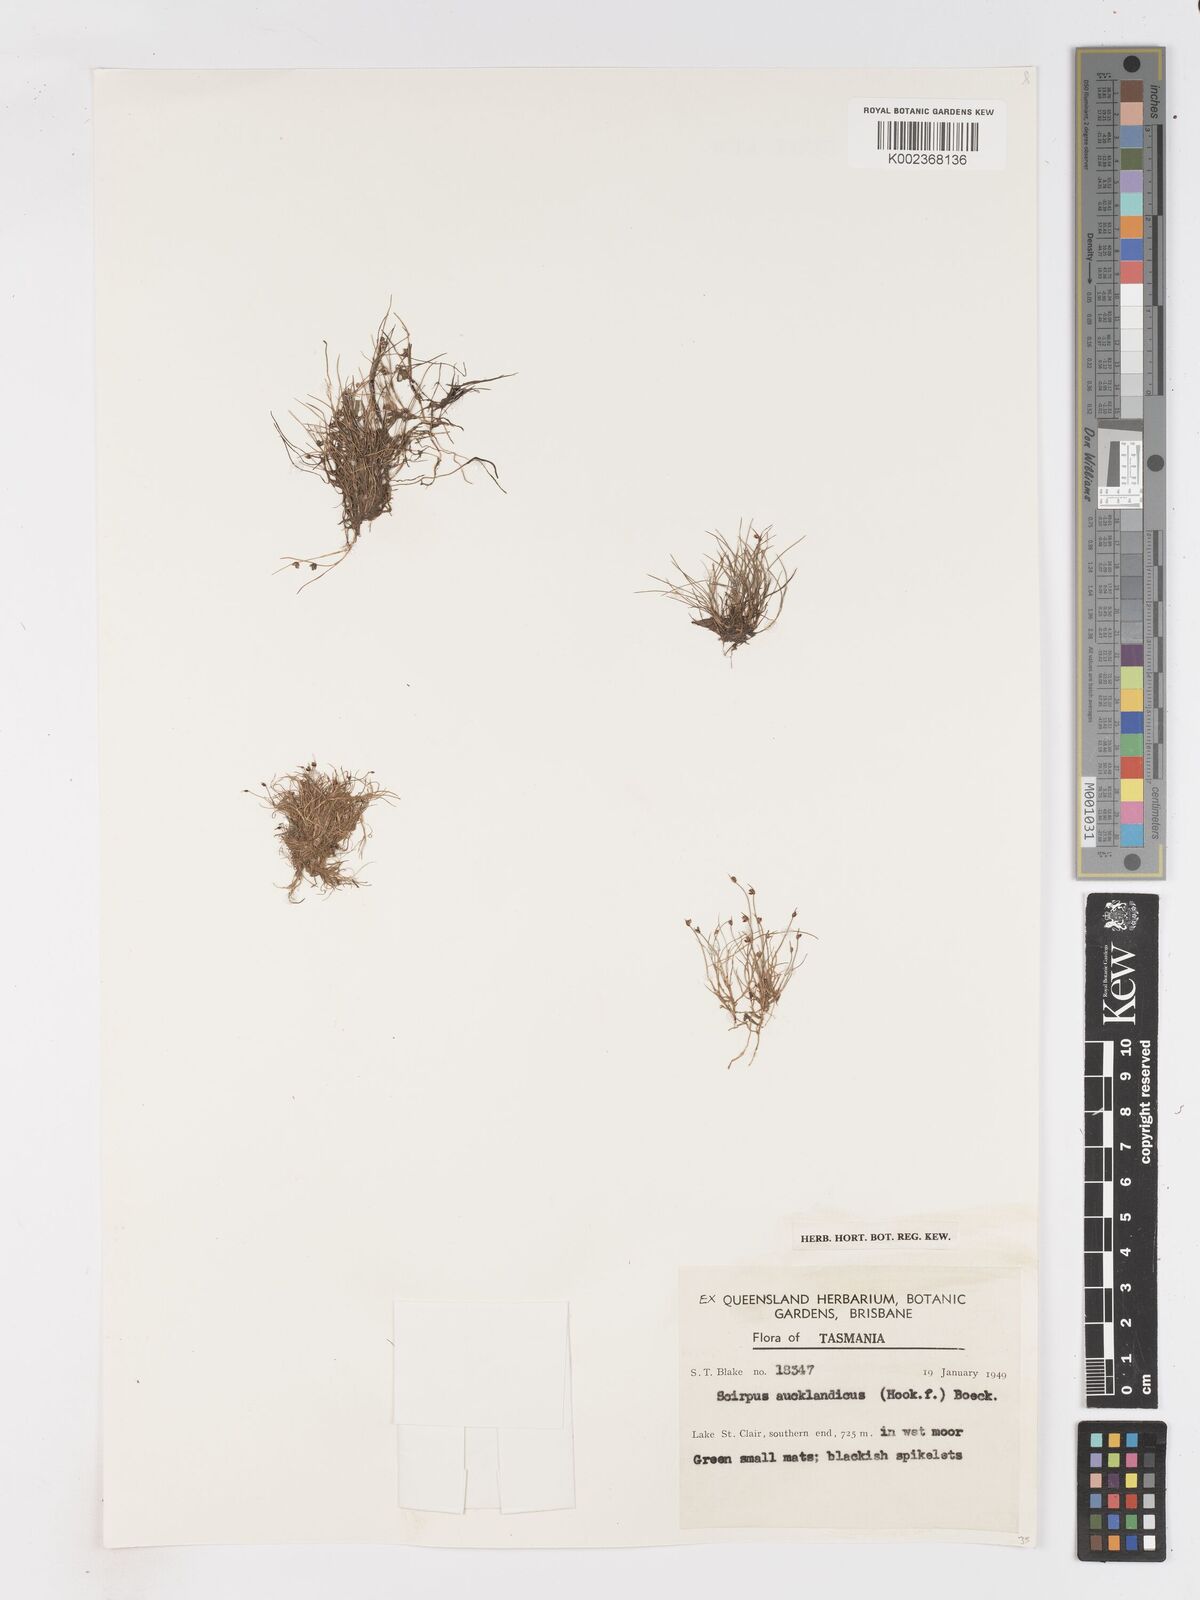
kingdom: Plantae
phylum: Tracheophyta
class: Liliopsida
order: Poales
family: Cyperaceae
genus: Isolepis
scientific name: Isolepis aucklandica
